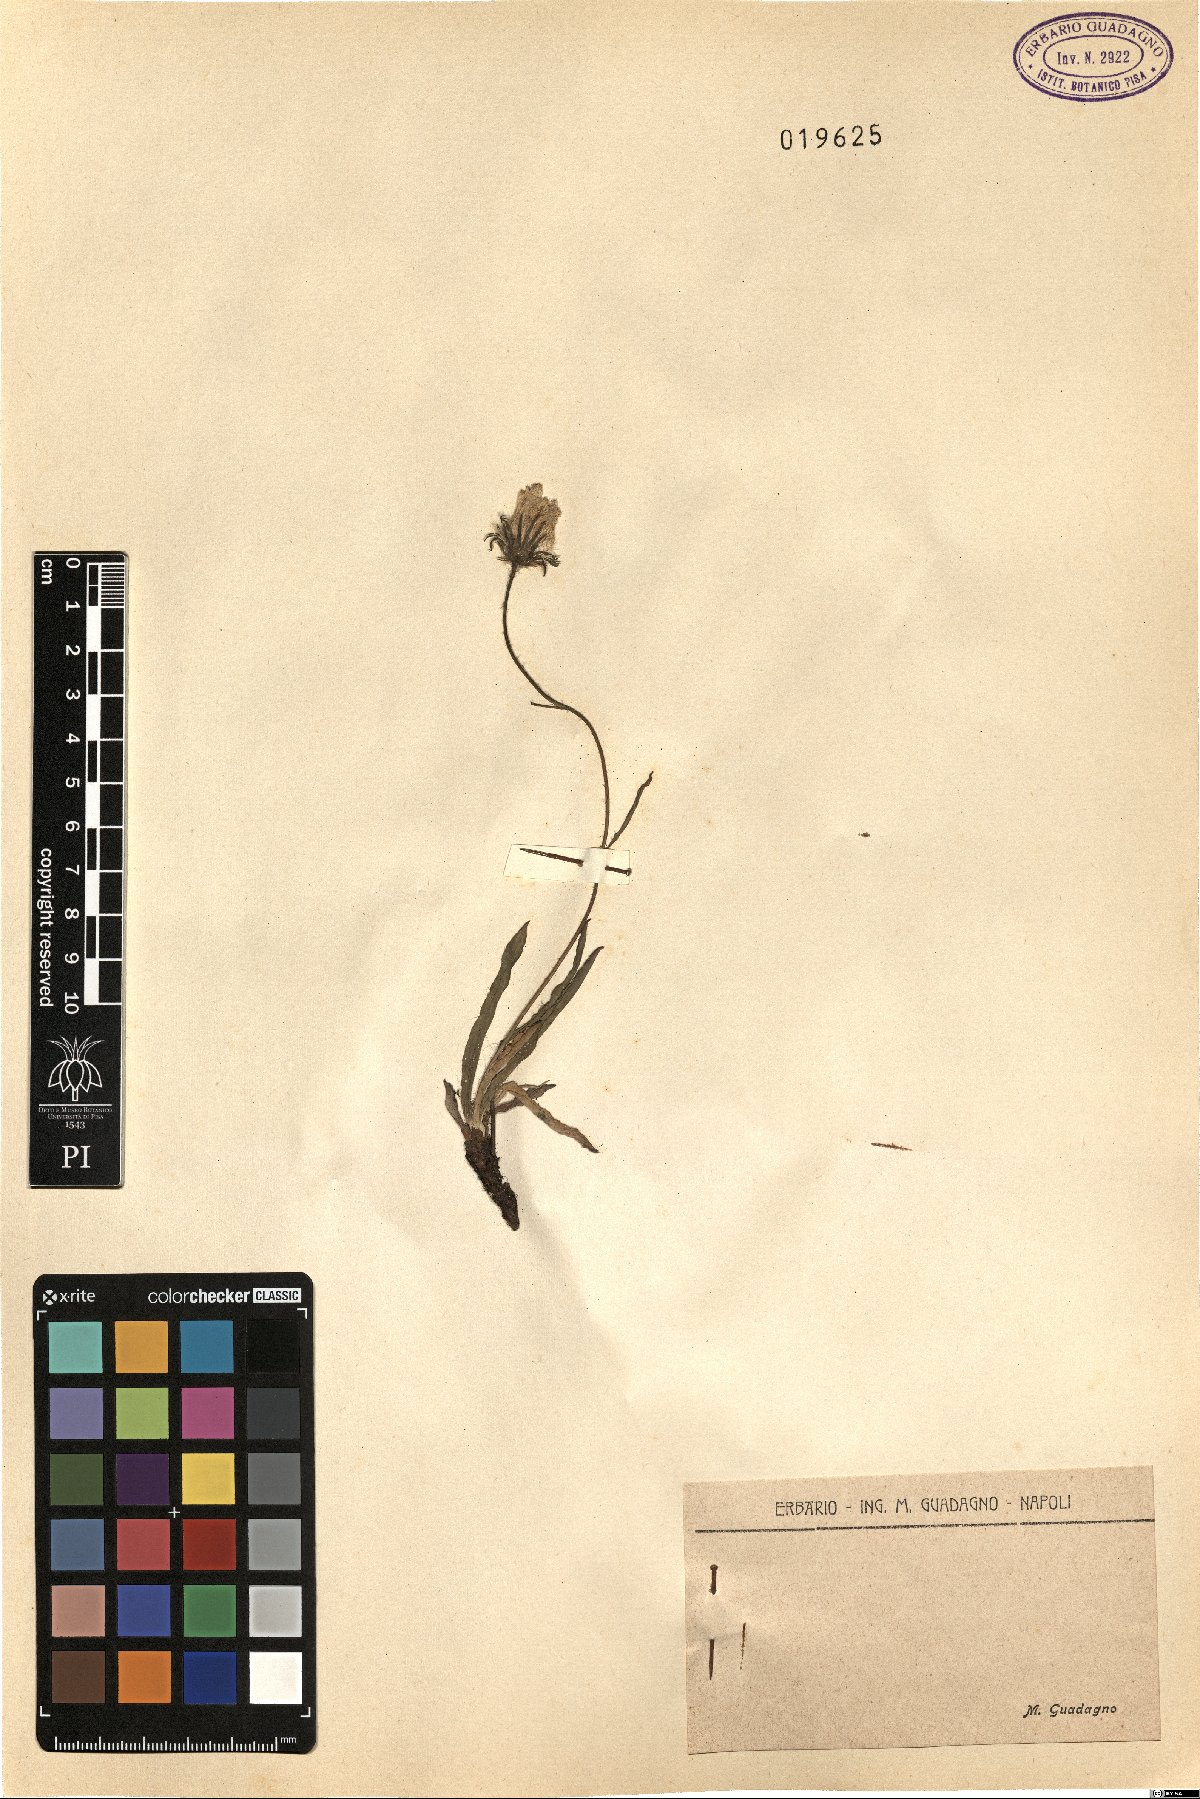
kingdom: Plantae
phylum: Tracheophyta
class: Magnoliopsida
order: Asterales
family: Asteraceae
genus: Hieracium
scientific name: Hieracium
